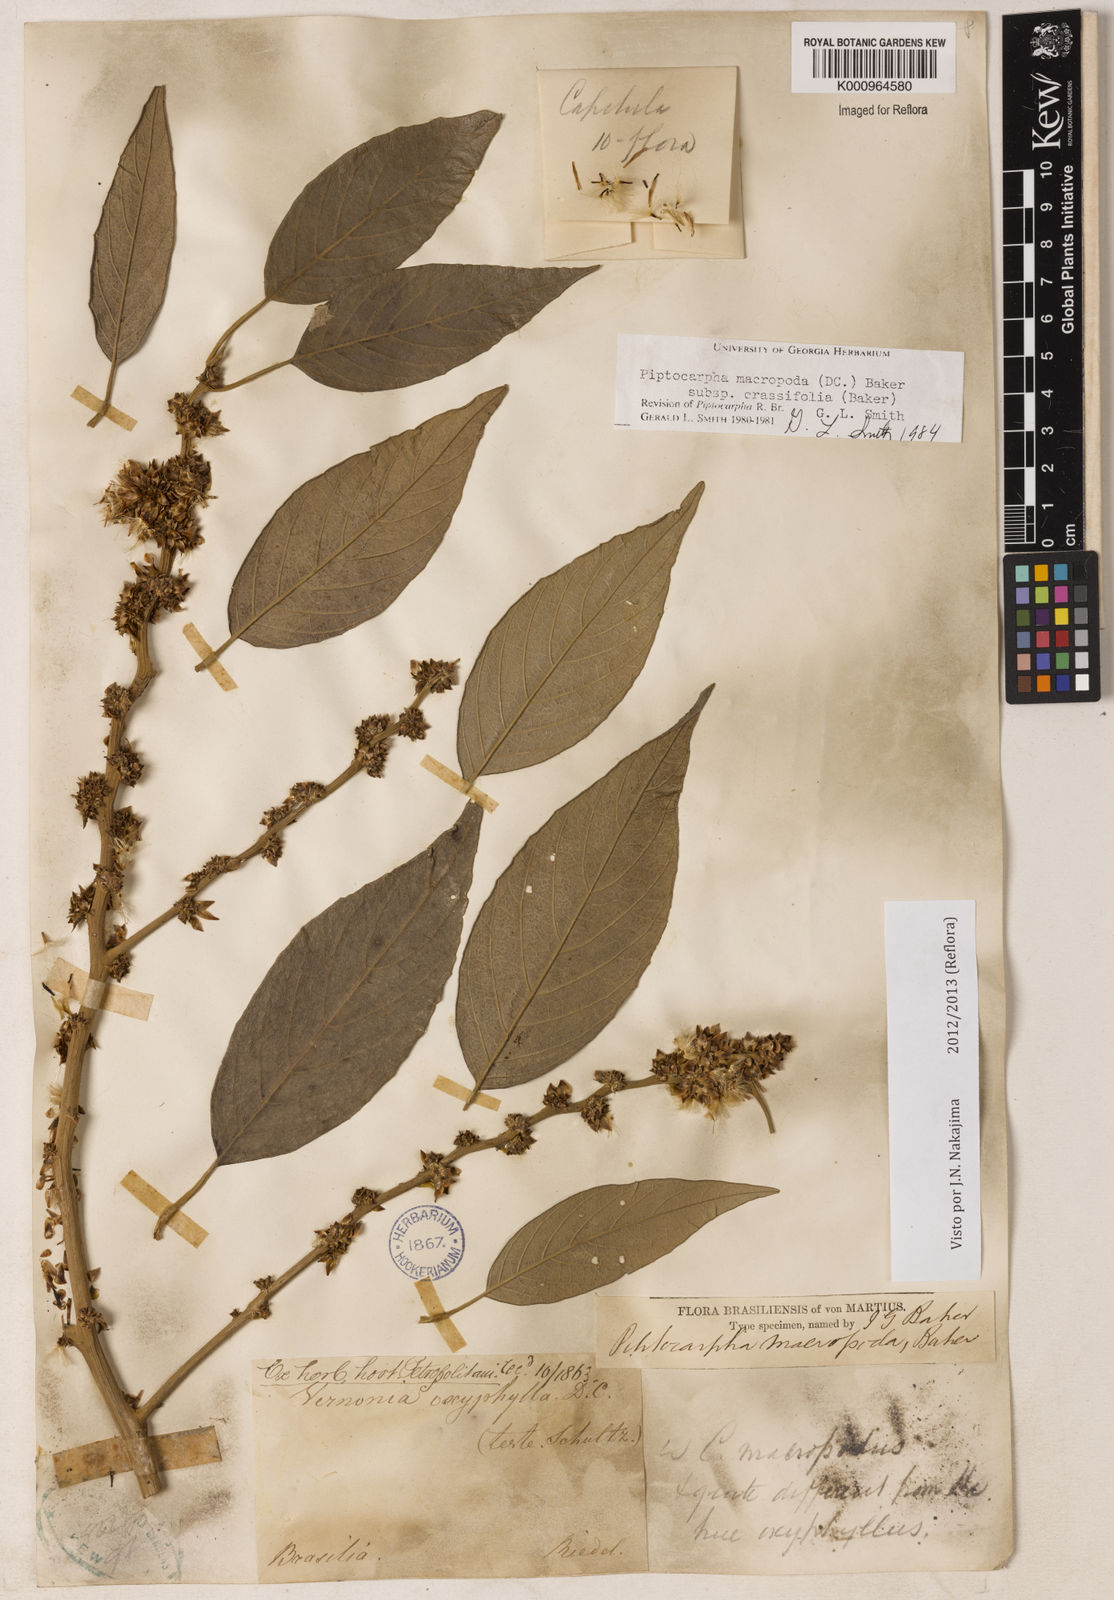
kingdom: Plantae
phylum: Tracheophyta
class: Magnoliopsida
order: Asterales
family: Asteraceae
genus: Piptocarpha
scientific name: Piptocarpha macropoda
